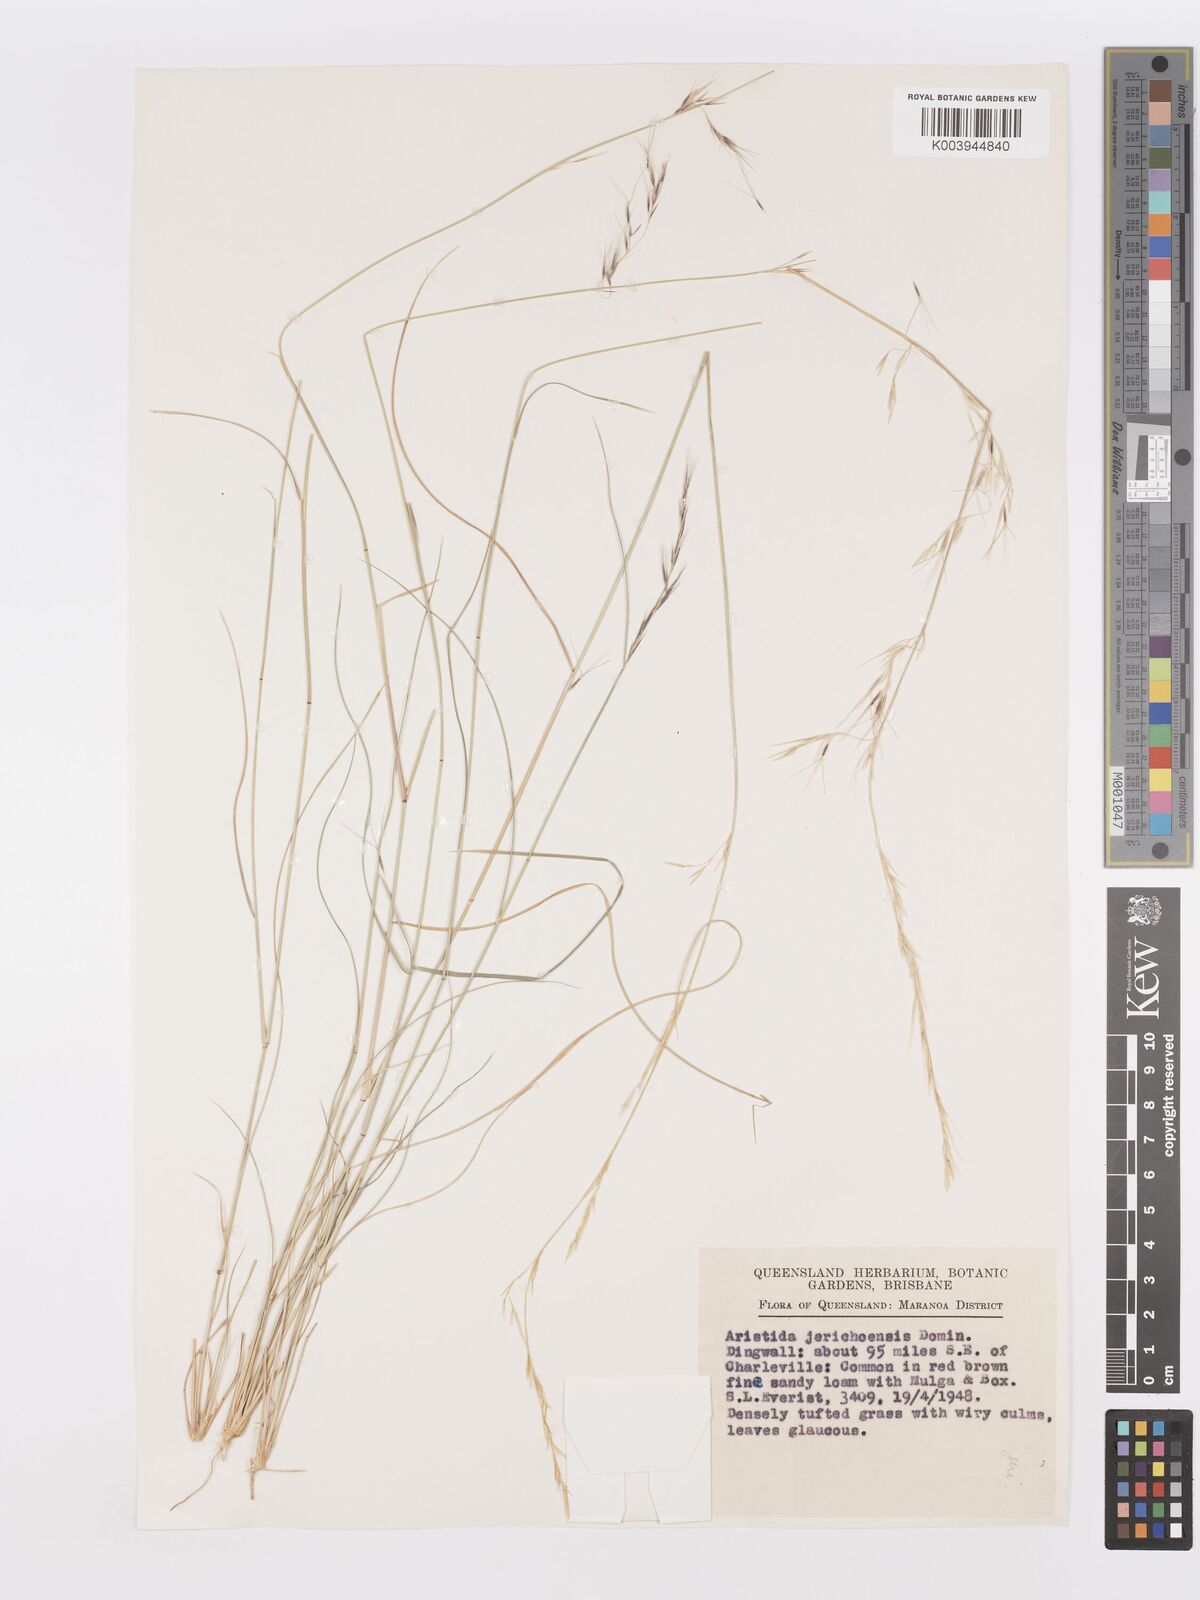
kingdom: Plantae
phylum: Tracheophyta
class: Liliopsida
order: Poales
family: Poaceae
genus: Aristida
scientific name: Aristida jerichoensis
